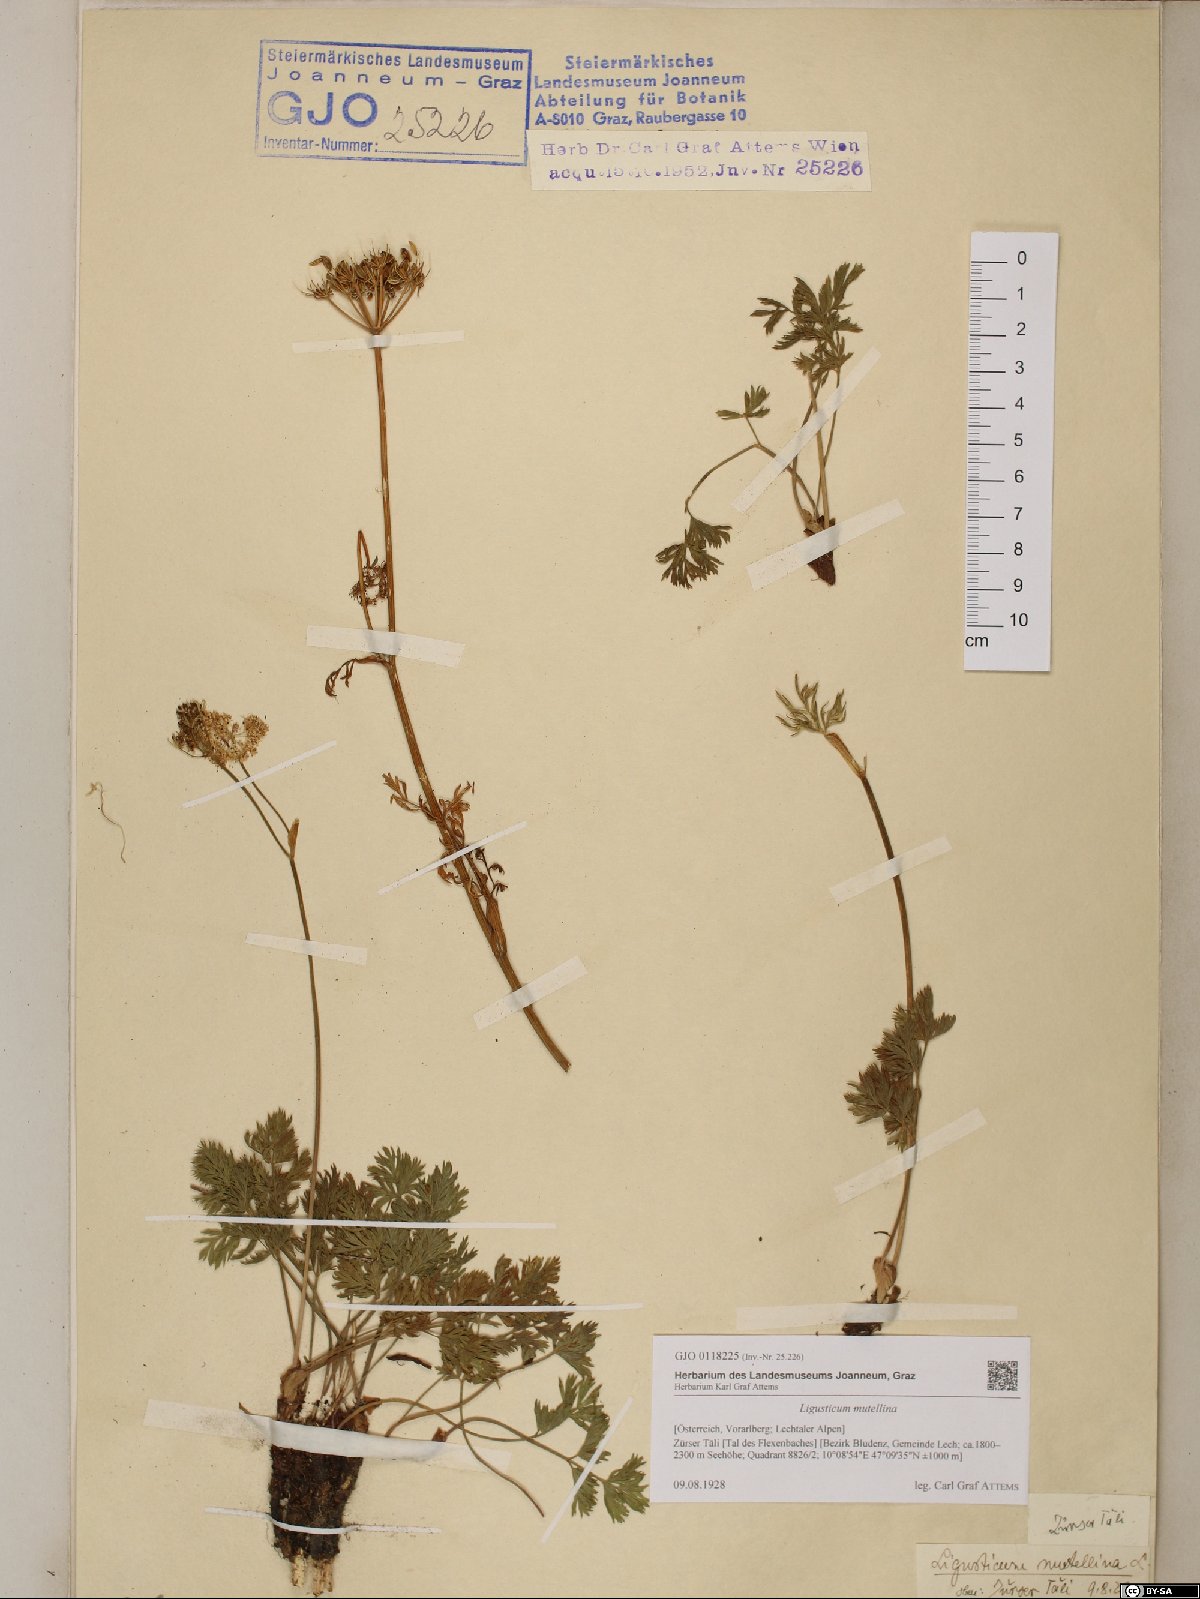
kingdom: Plantae
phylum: Tracheophyta
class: Magnoliopsida
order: Apiales
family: Apiaceae
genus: Mutellina
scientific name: Mutellina adonidifolia
